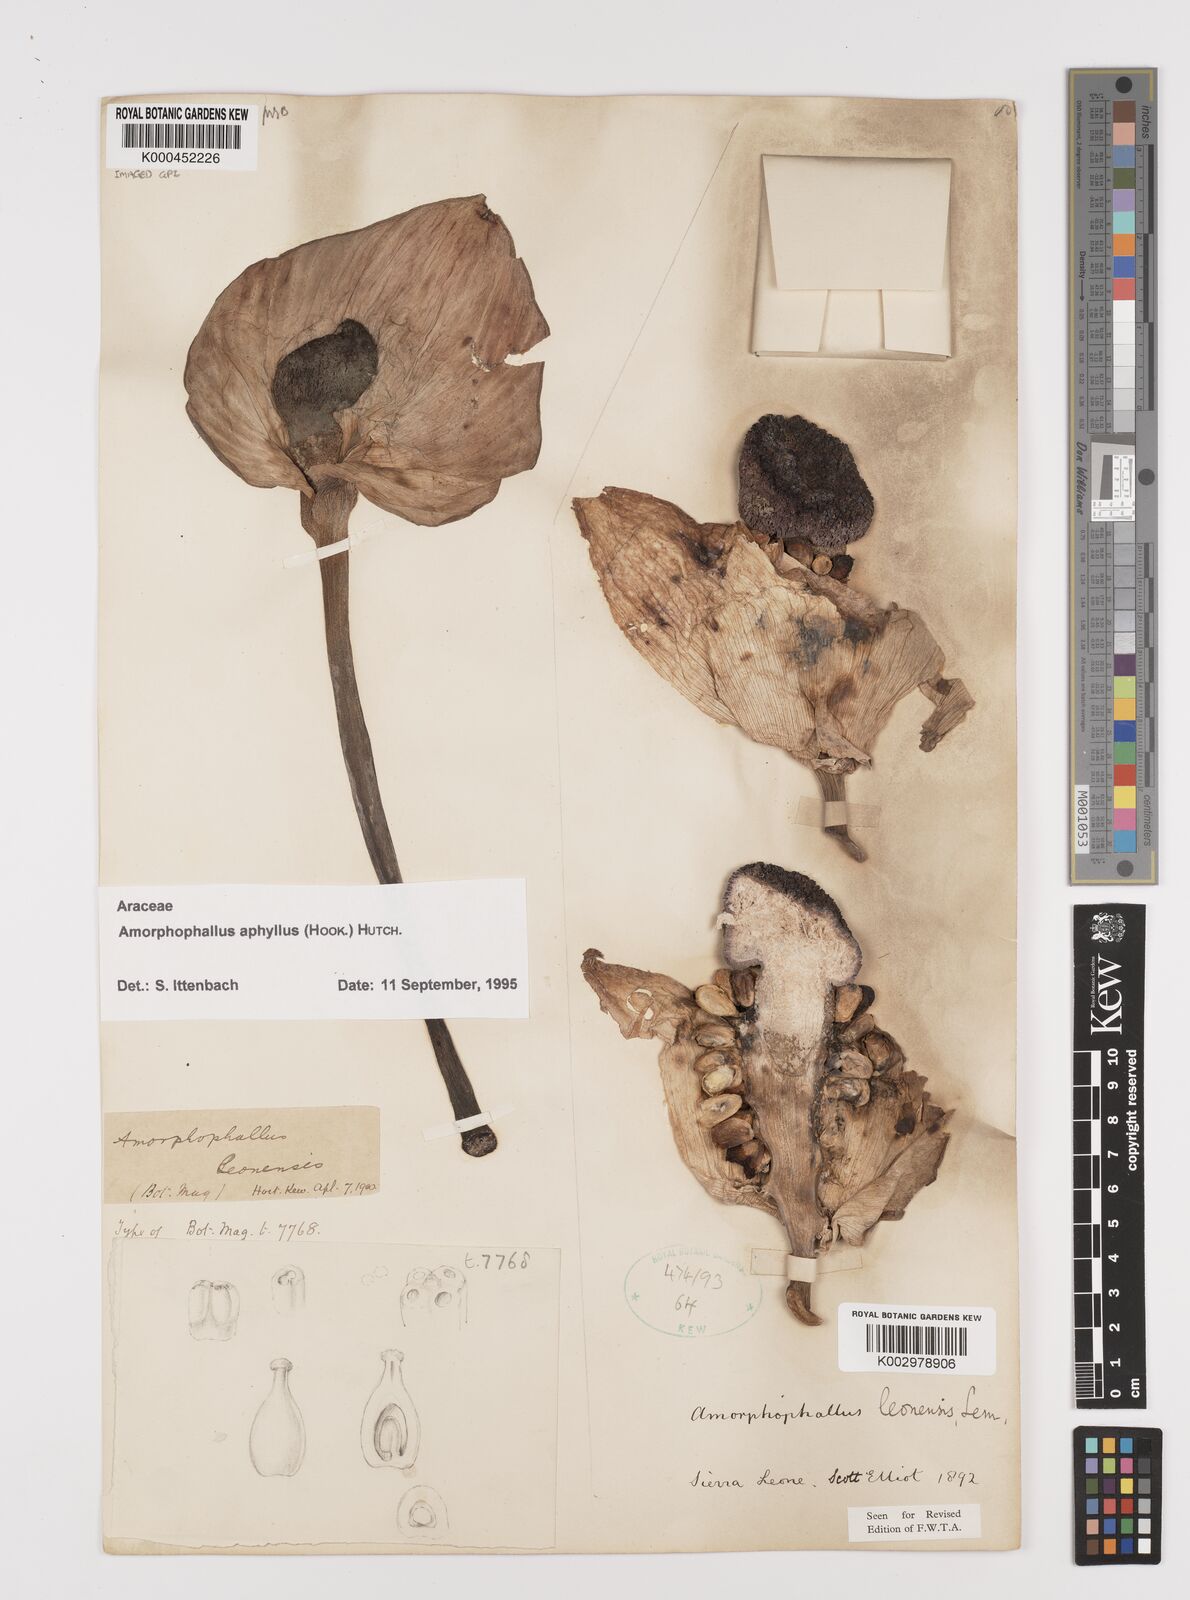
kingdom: Plantae
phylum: Tracheophyta
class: Liliopsida
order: Alismatales
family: Araceae
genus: Amorphophallus
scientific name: Amorphophallus aphyllus
